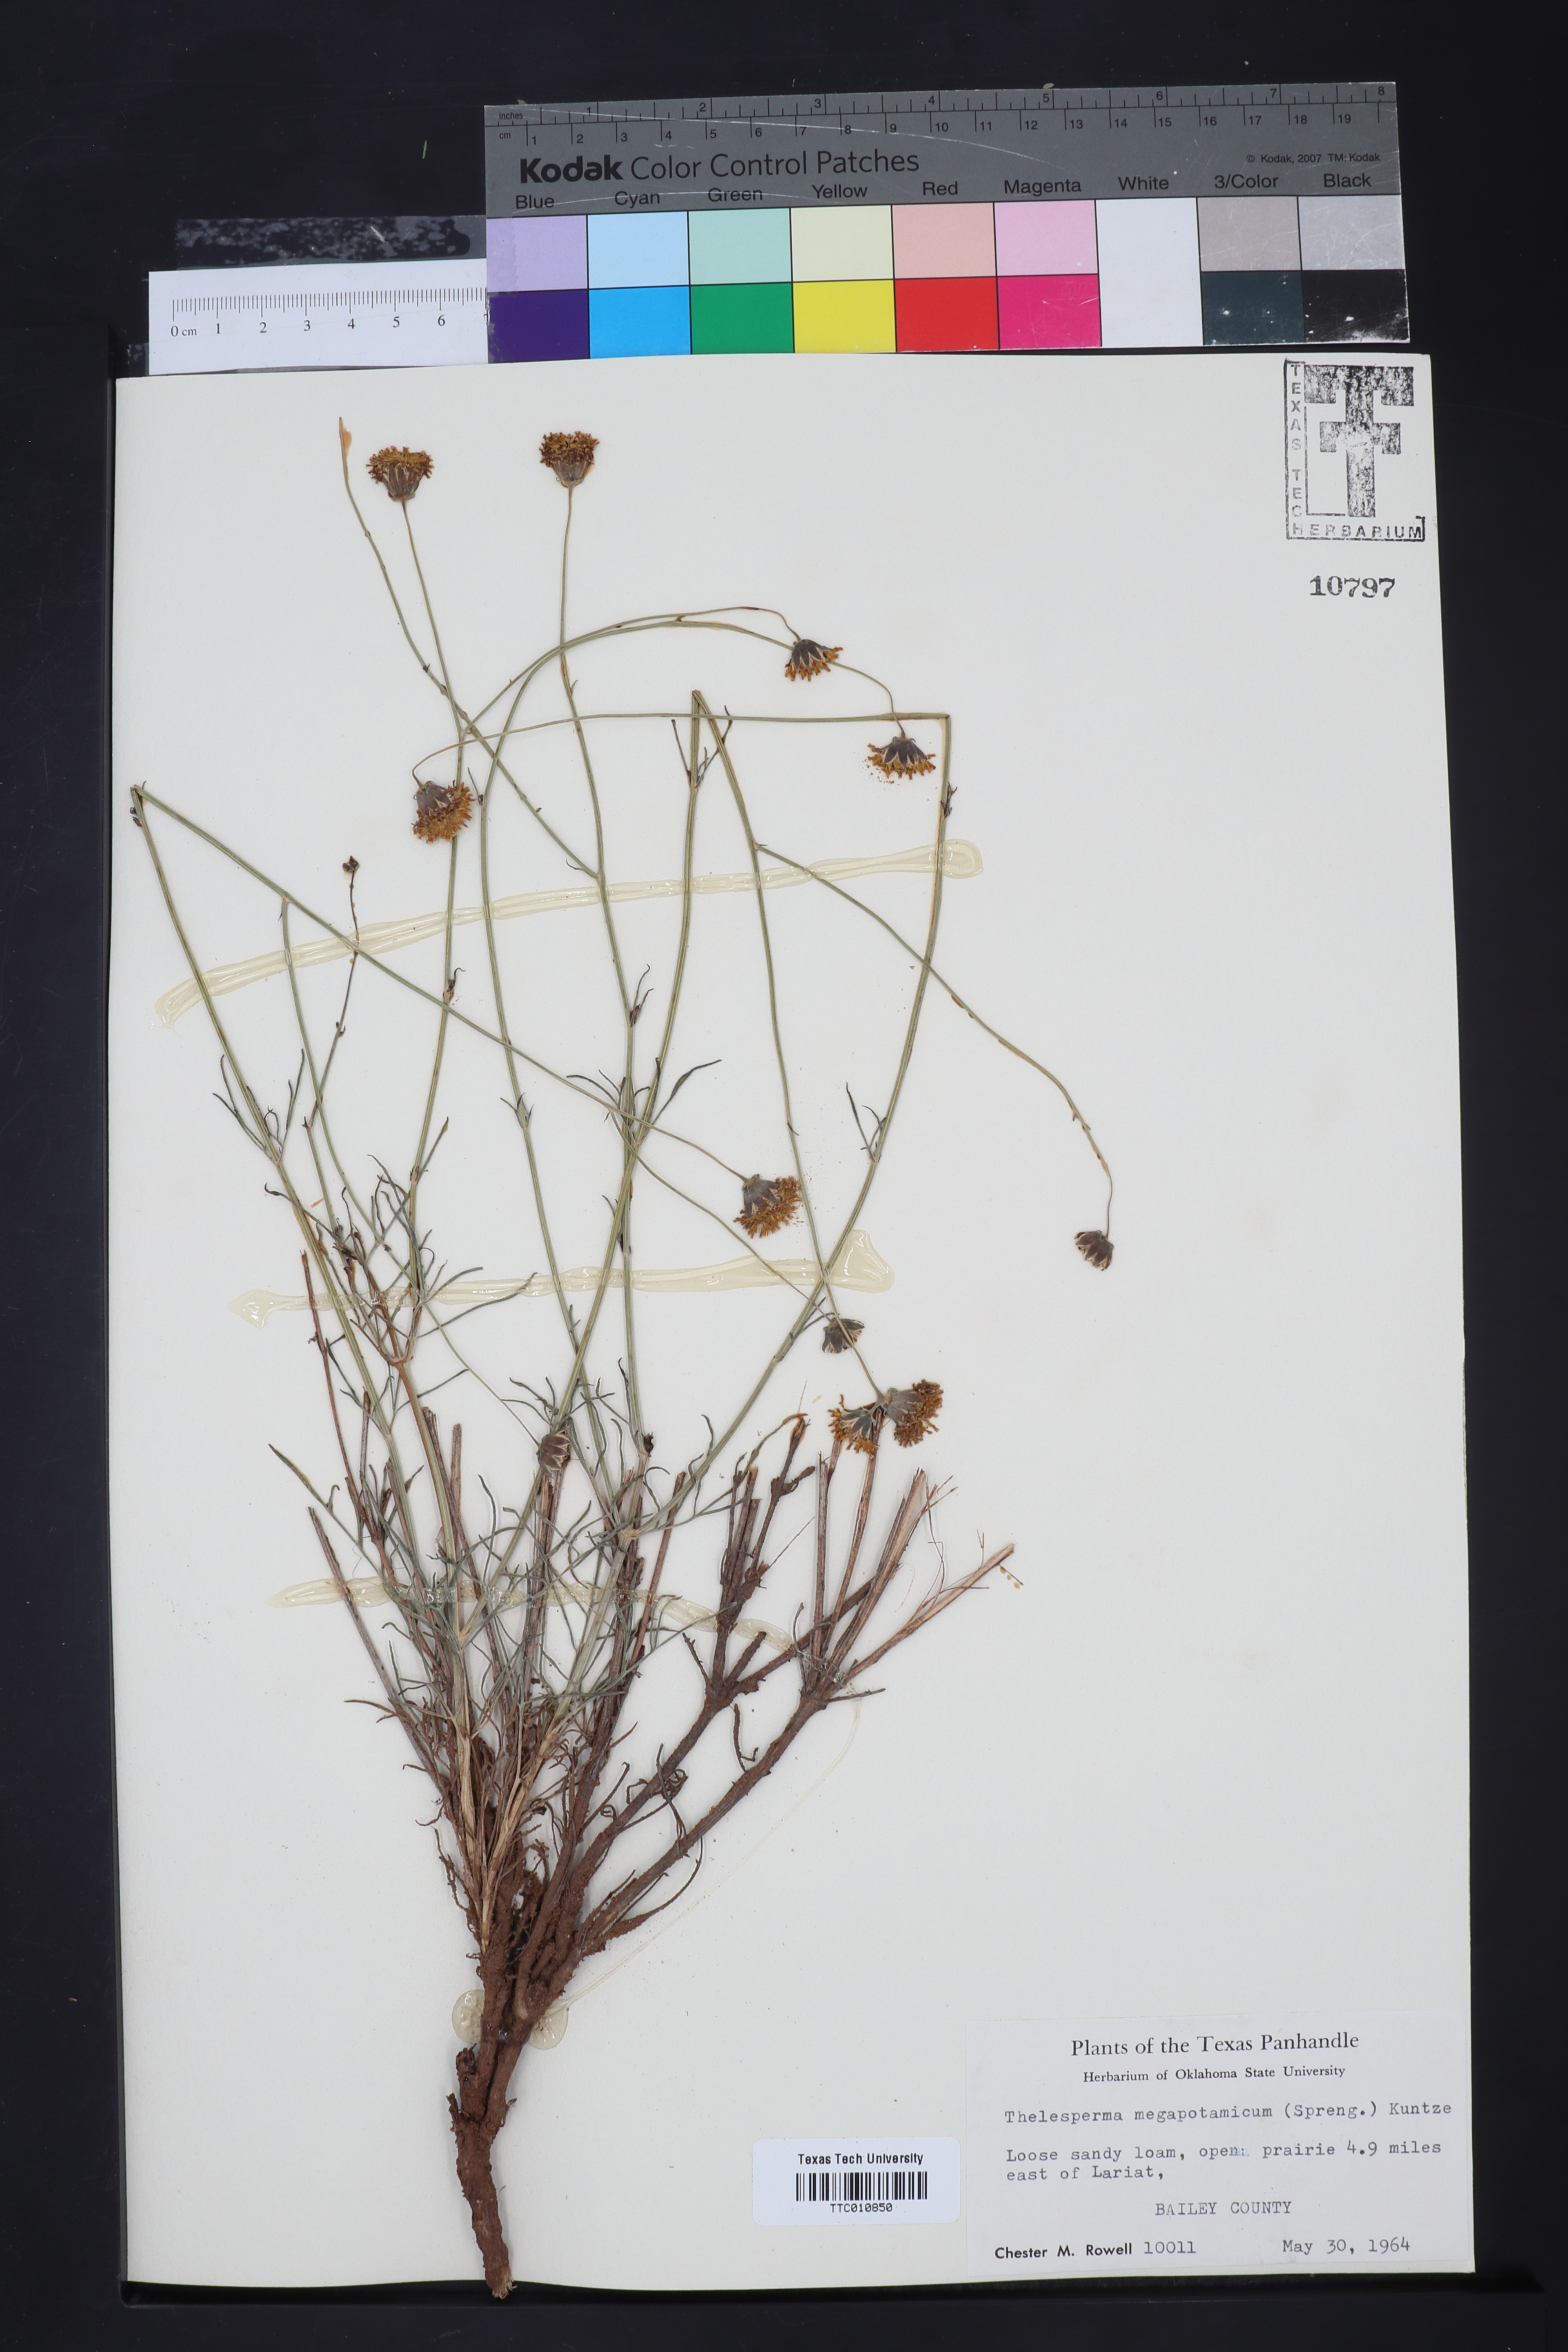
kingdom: Plantae
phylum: Tracheophyta
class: Magnoliopsida
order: Asterales
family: Asteraceae
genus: Thelesperma
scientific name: Thelesperma megapotamicum
